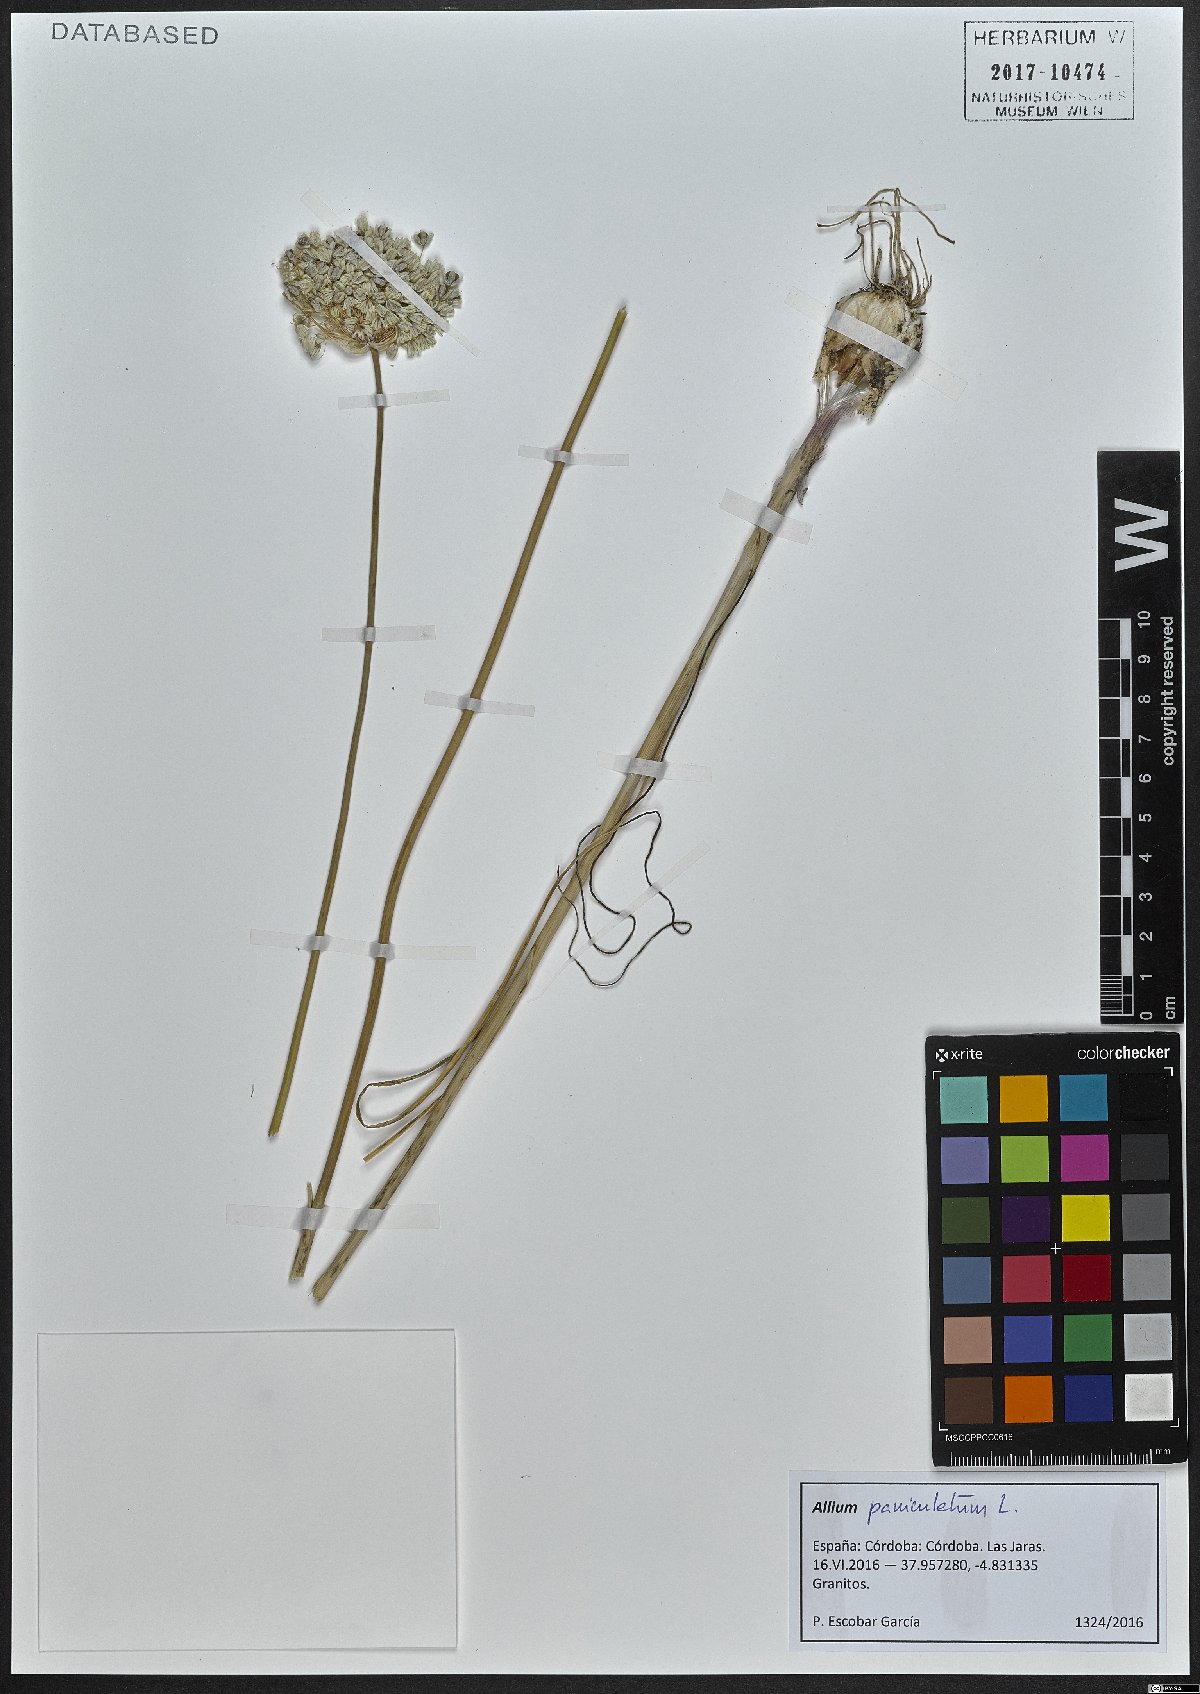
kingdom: Plantae
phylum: Tracheophyta
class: Liliopsida
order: Asparagales
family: Amaryllidaceae
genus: Allium
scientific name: Allium paniculatum
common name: Pale garlic
